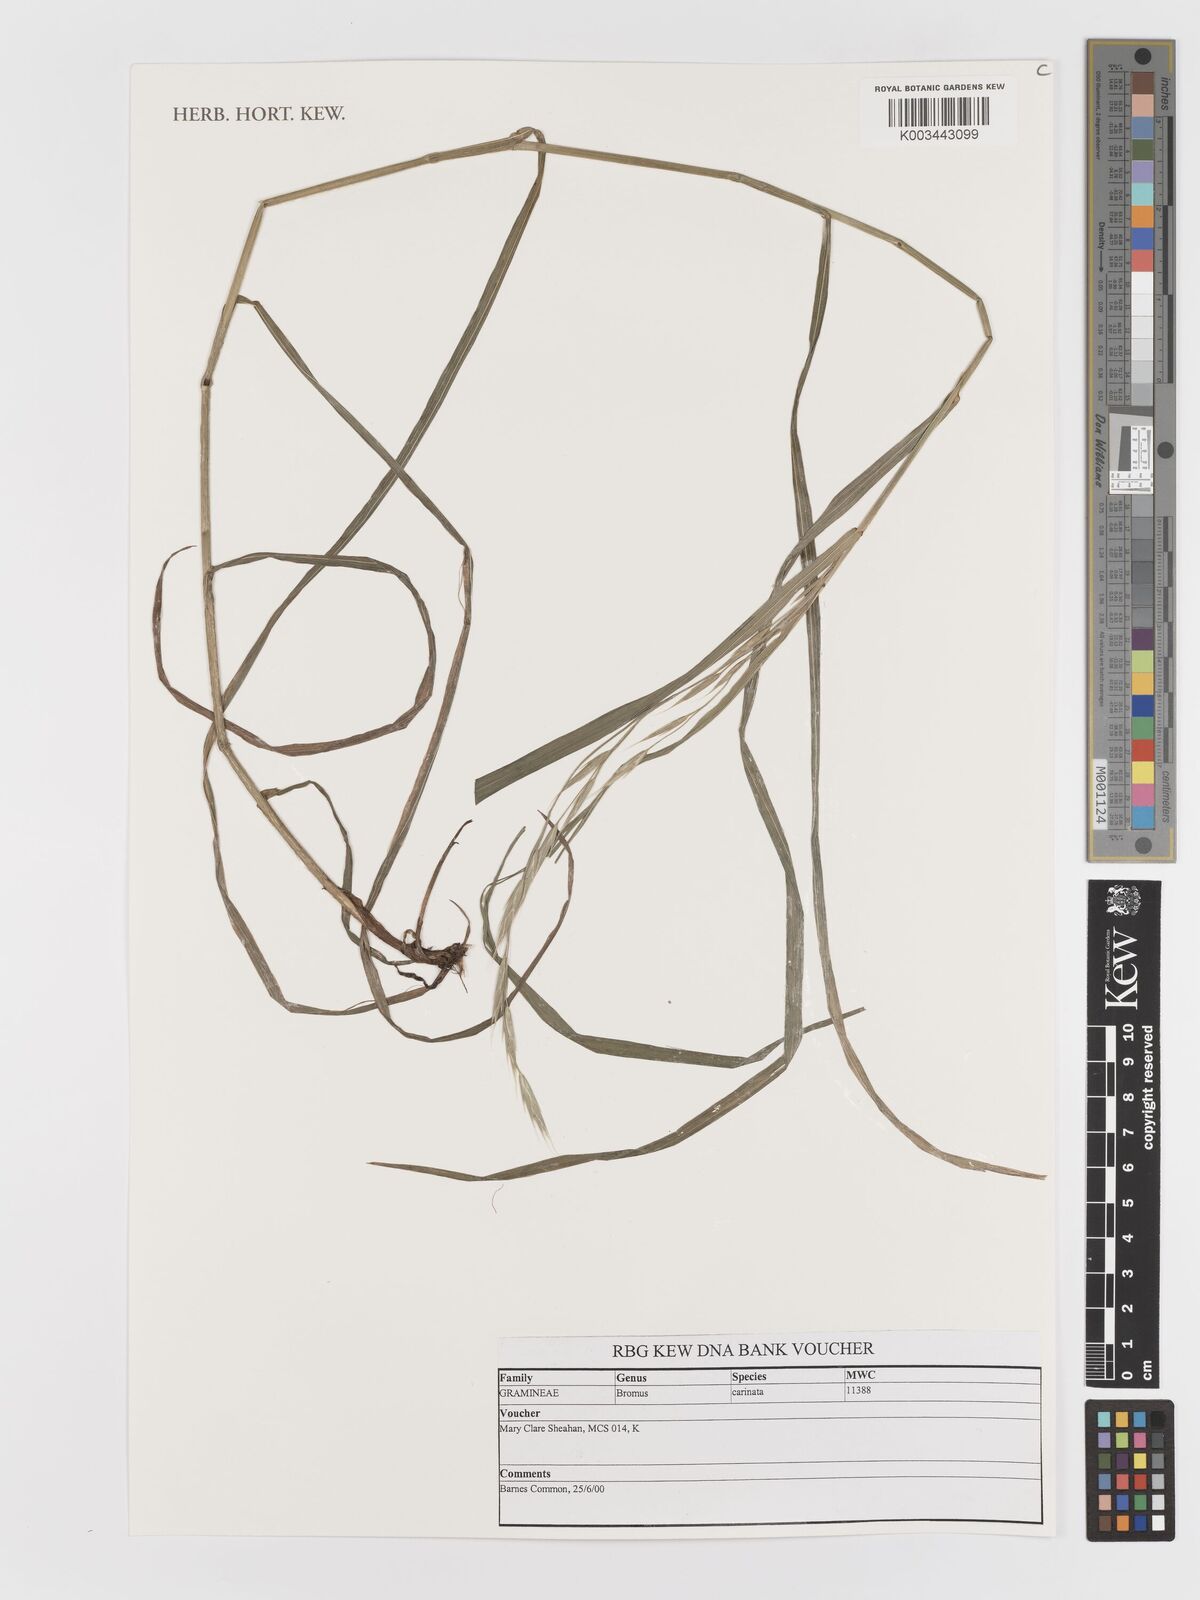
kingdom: Plantae
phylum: Tracheophyta
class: Liliopsida
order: Poales
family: Poaceae
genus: Bromus
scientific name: Bromus carinatus
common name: Mountain brome
